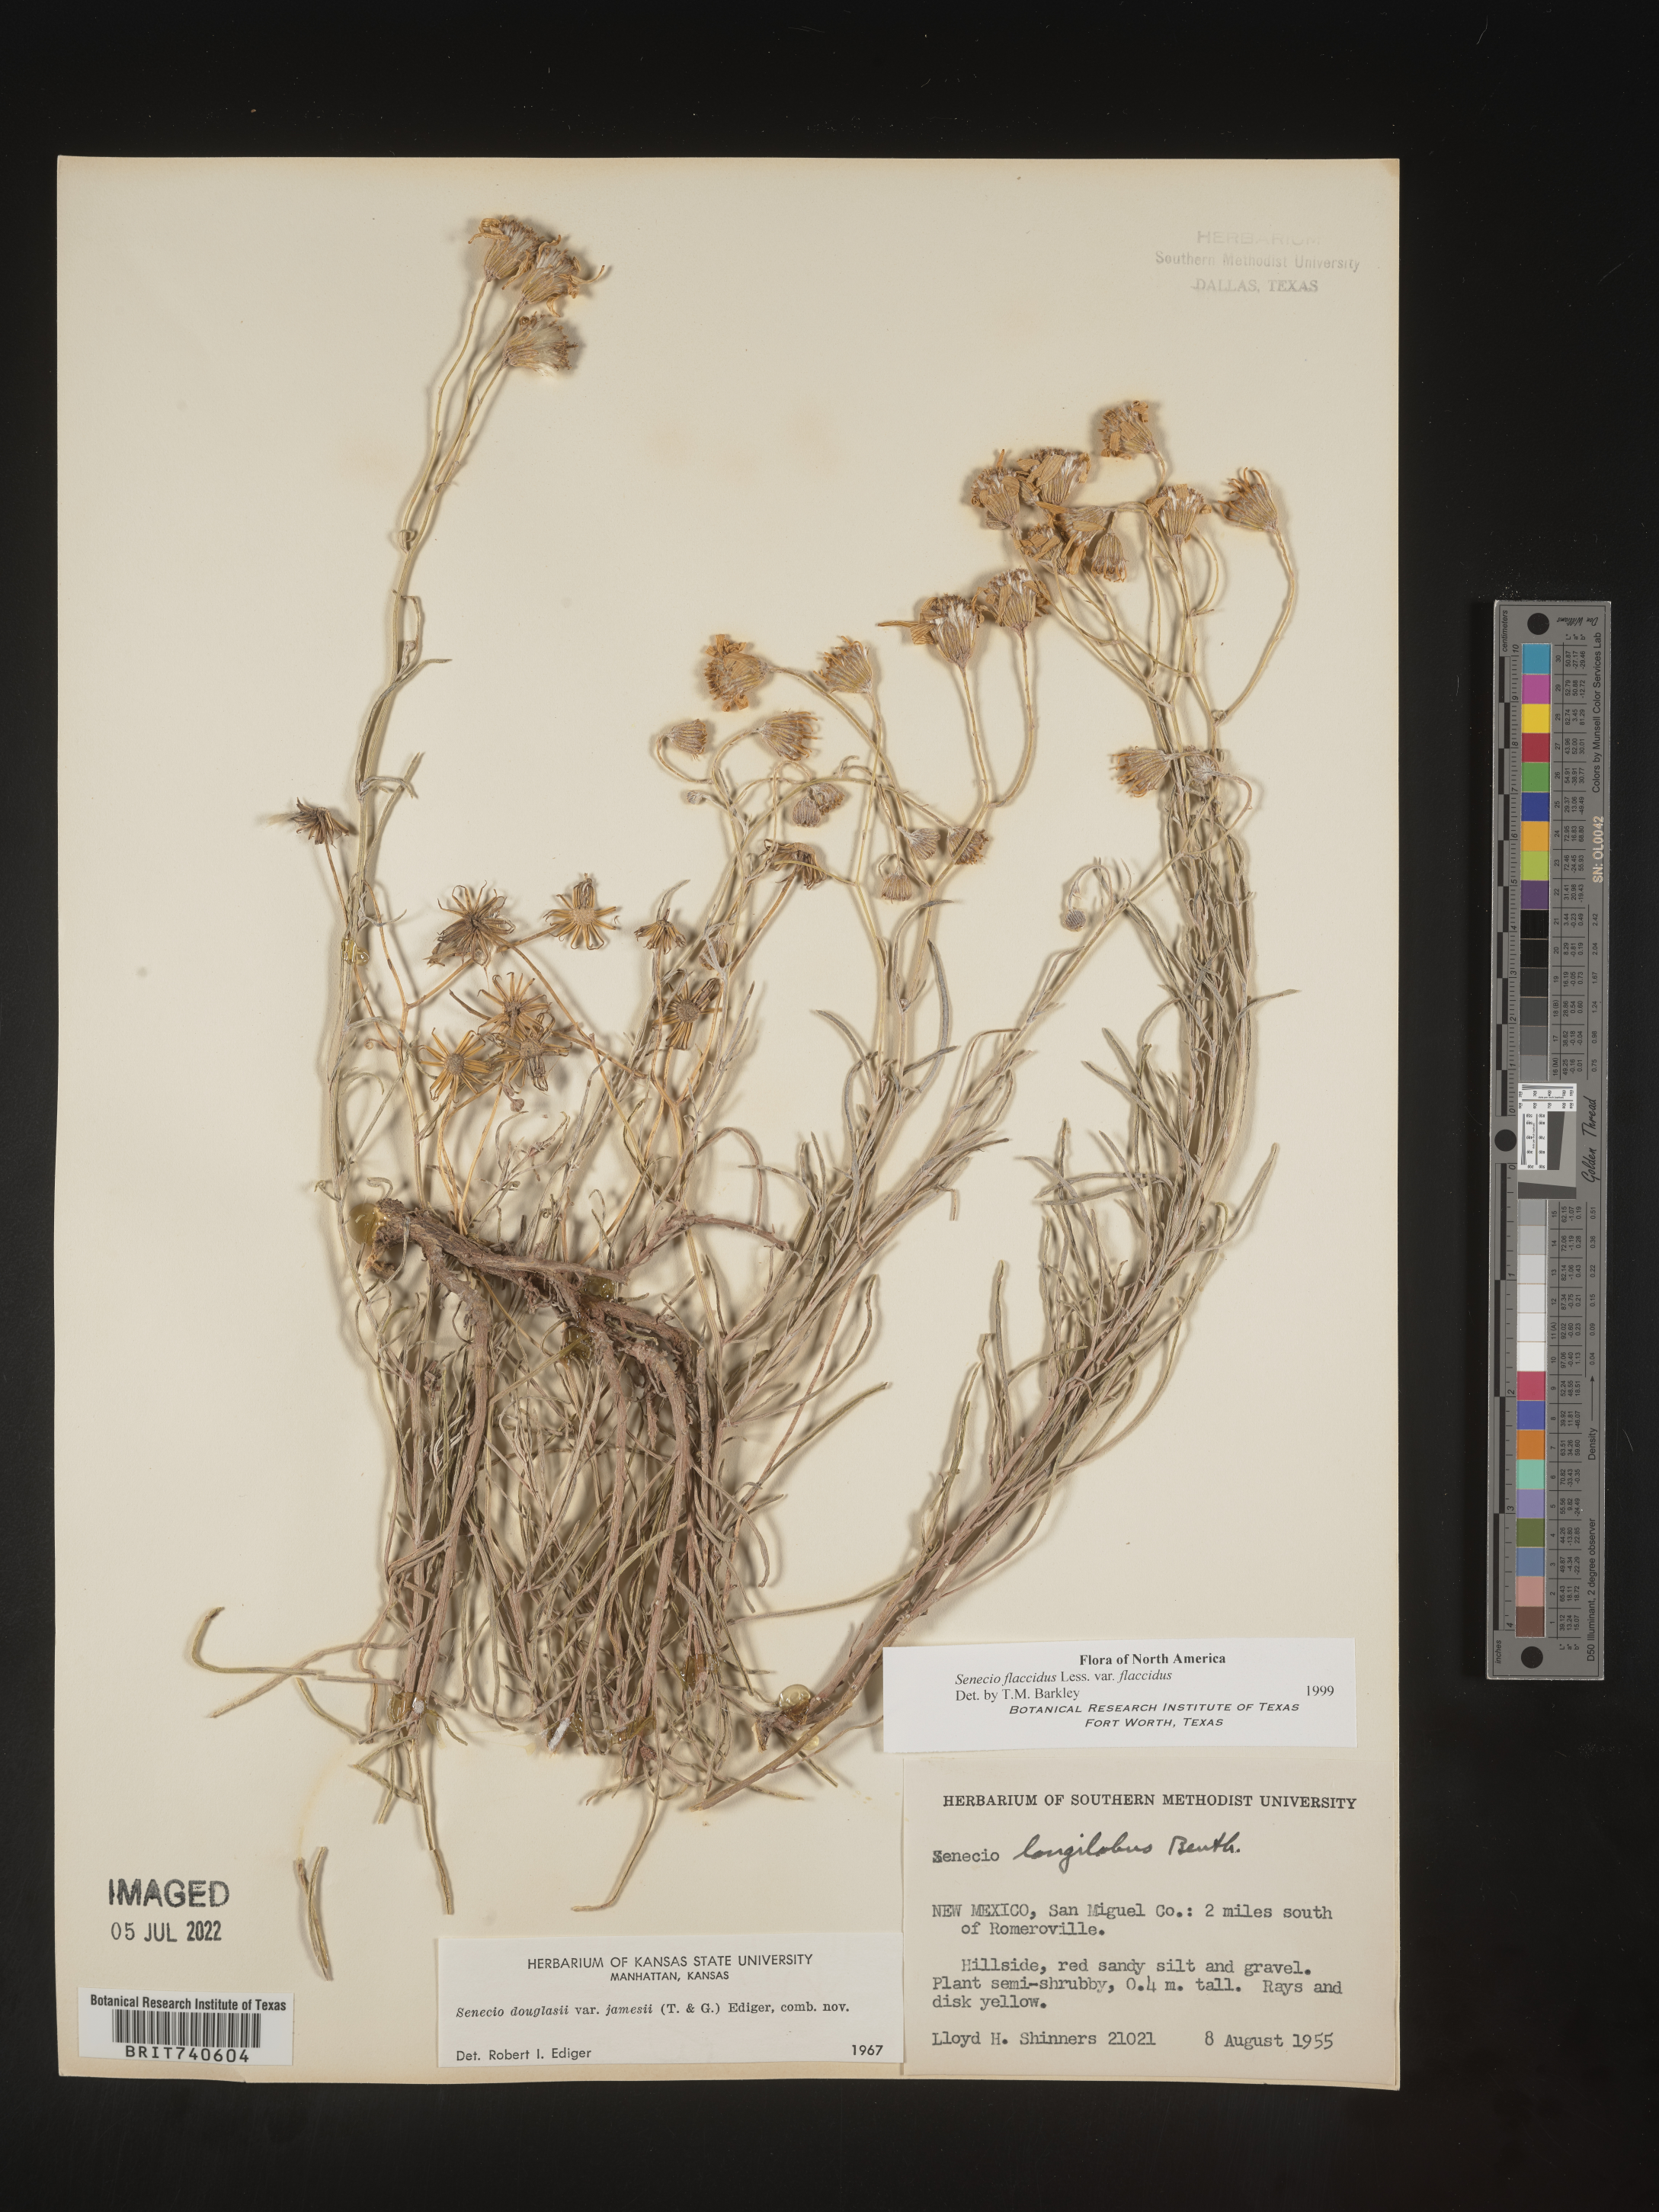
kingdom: Plantae
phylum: Tracheophyta
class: Magnoliopsida
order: Asterales
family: Asteraceae
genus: Senecio
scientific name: Senecio flaccidus
